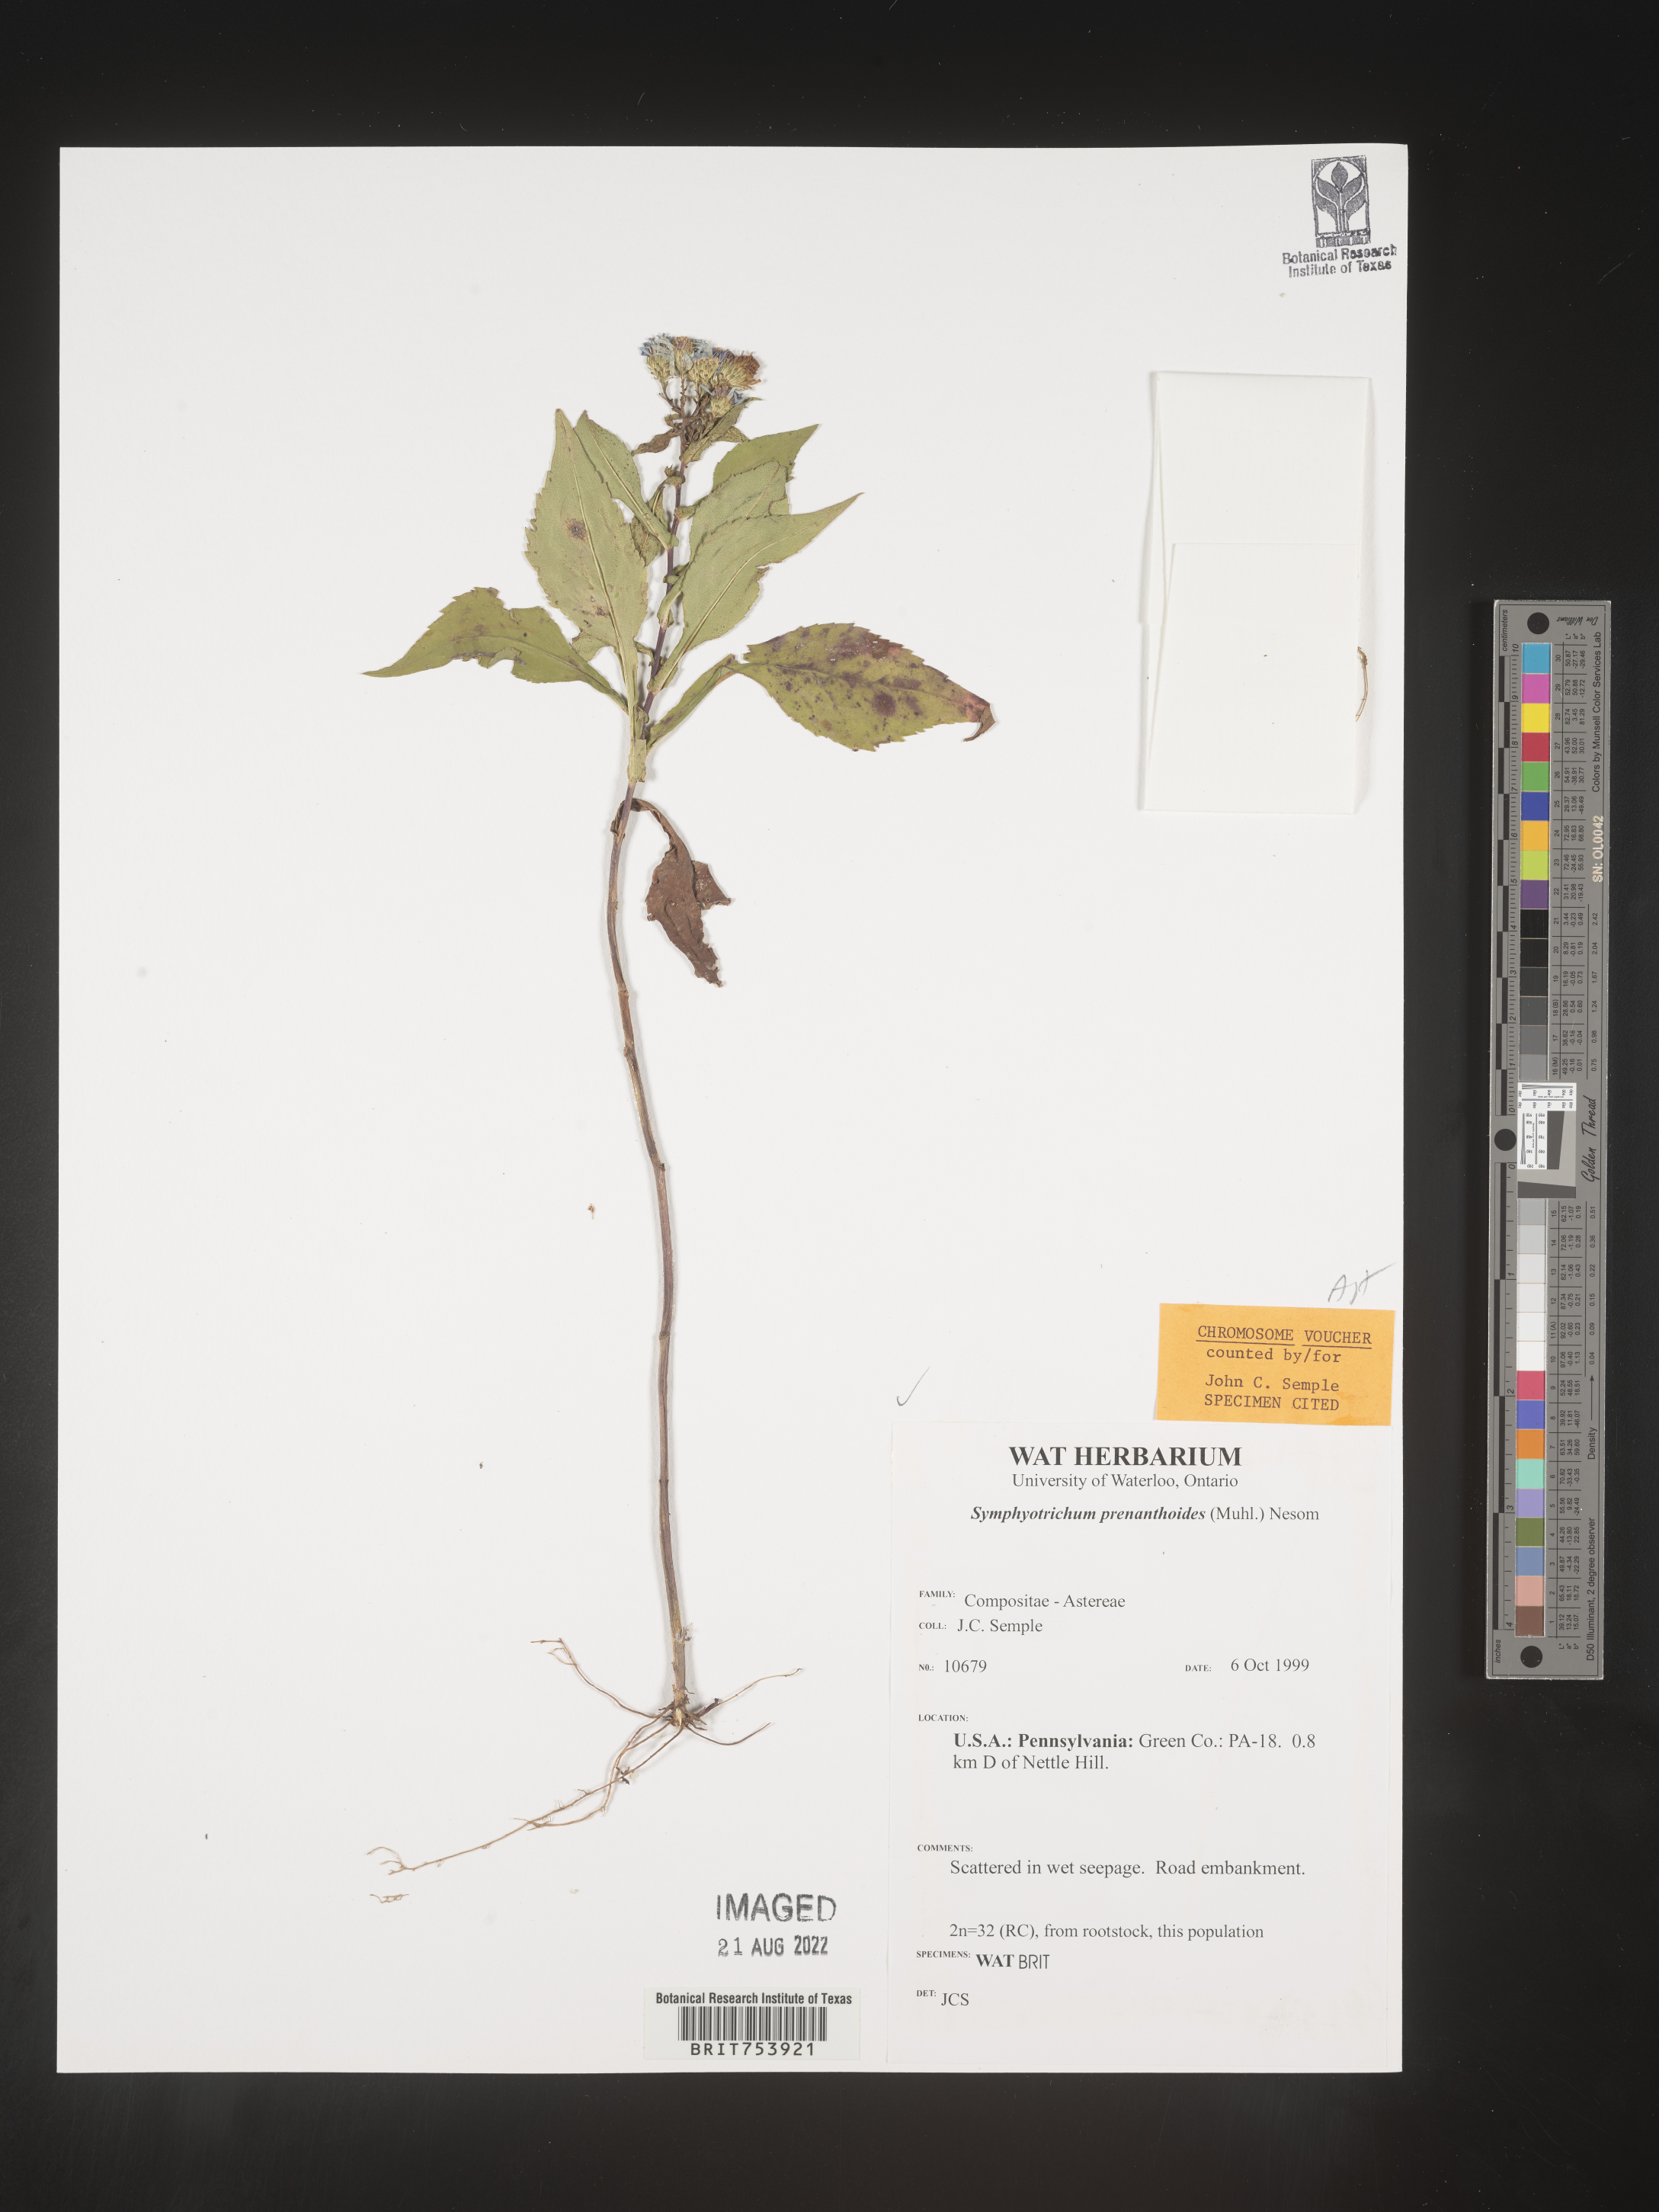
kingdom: Plantae
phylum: Tracheophyta
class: Magnoliopsida
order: Asterales
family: Asteraceae
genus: Symphyotrichum
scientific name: Symphyotrichum prenanthoides
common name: Crooked-stem aster
